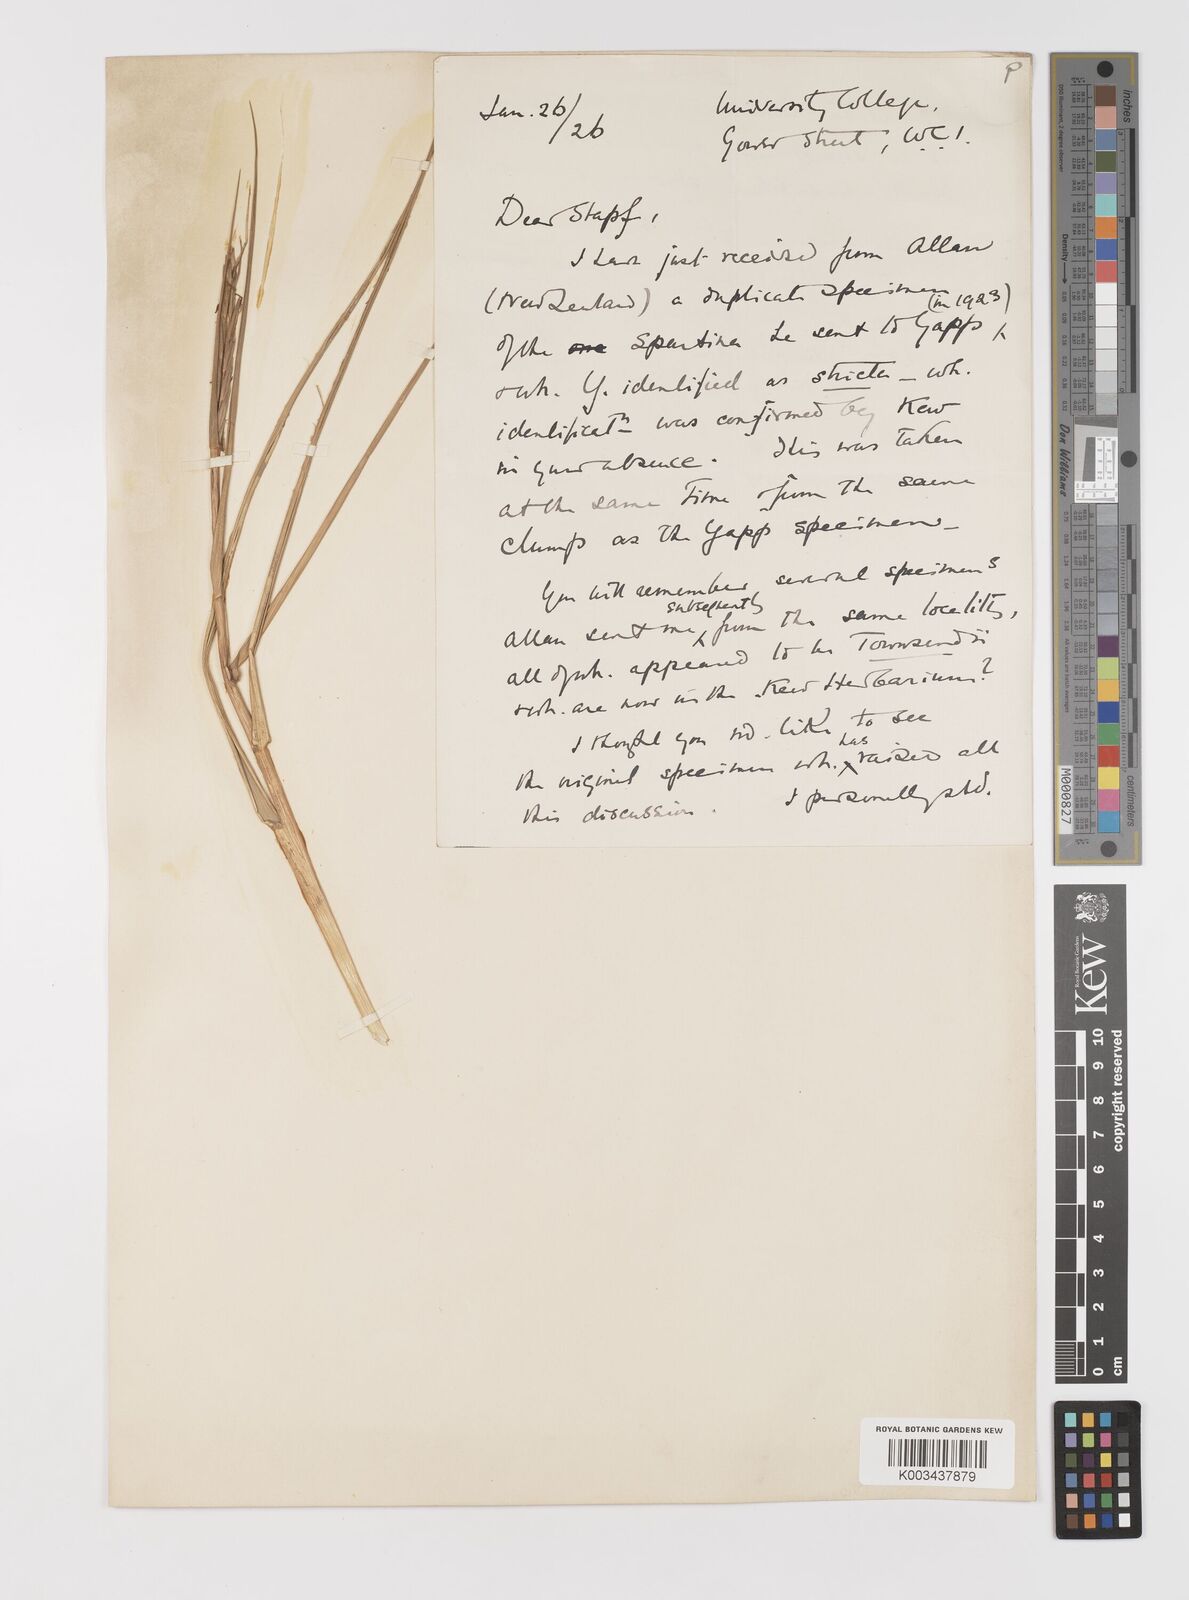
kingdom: Plantae
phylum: Tracheophyta
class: Liliopsida
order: Poales
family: Poaceae
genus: Sporobolus
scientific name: Sporobolus townsendii
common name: Townsend's cordgrass
